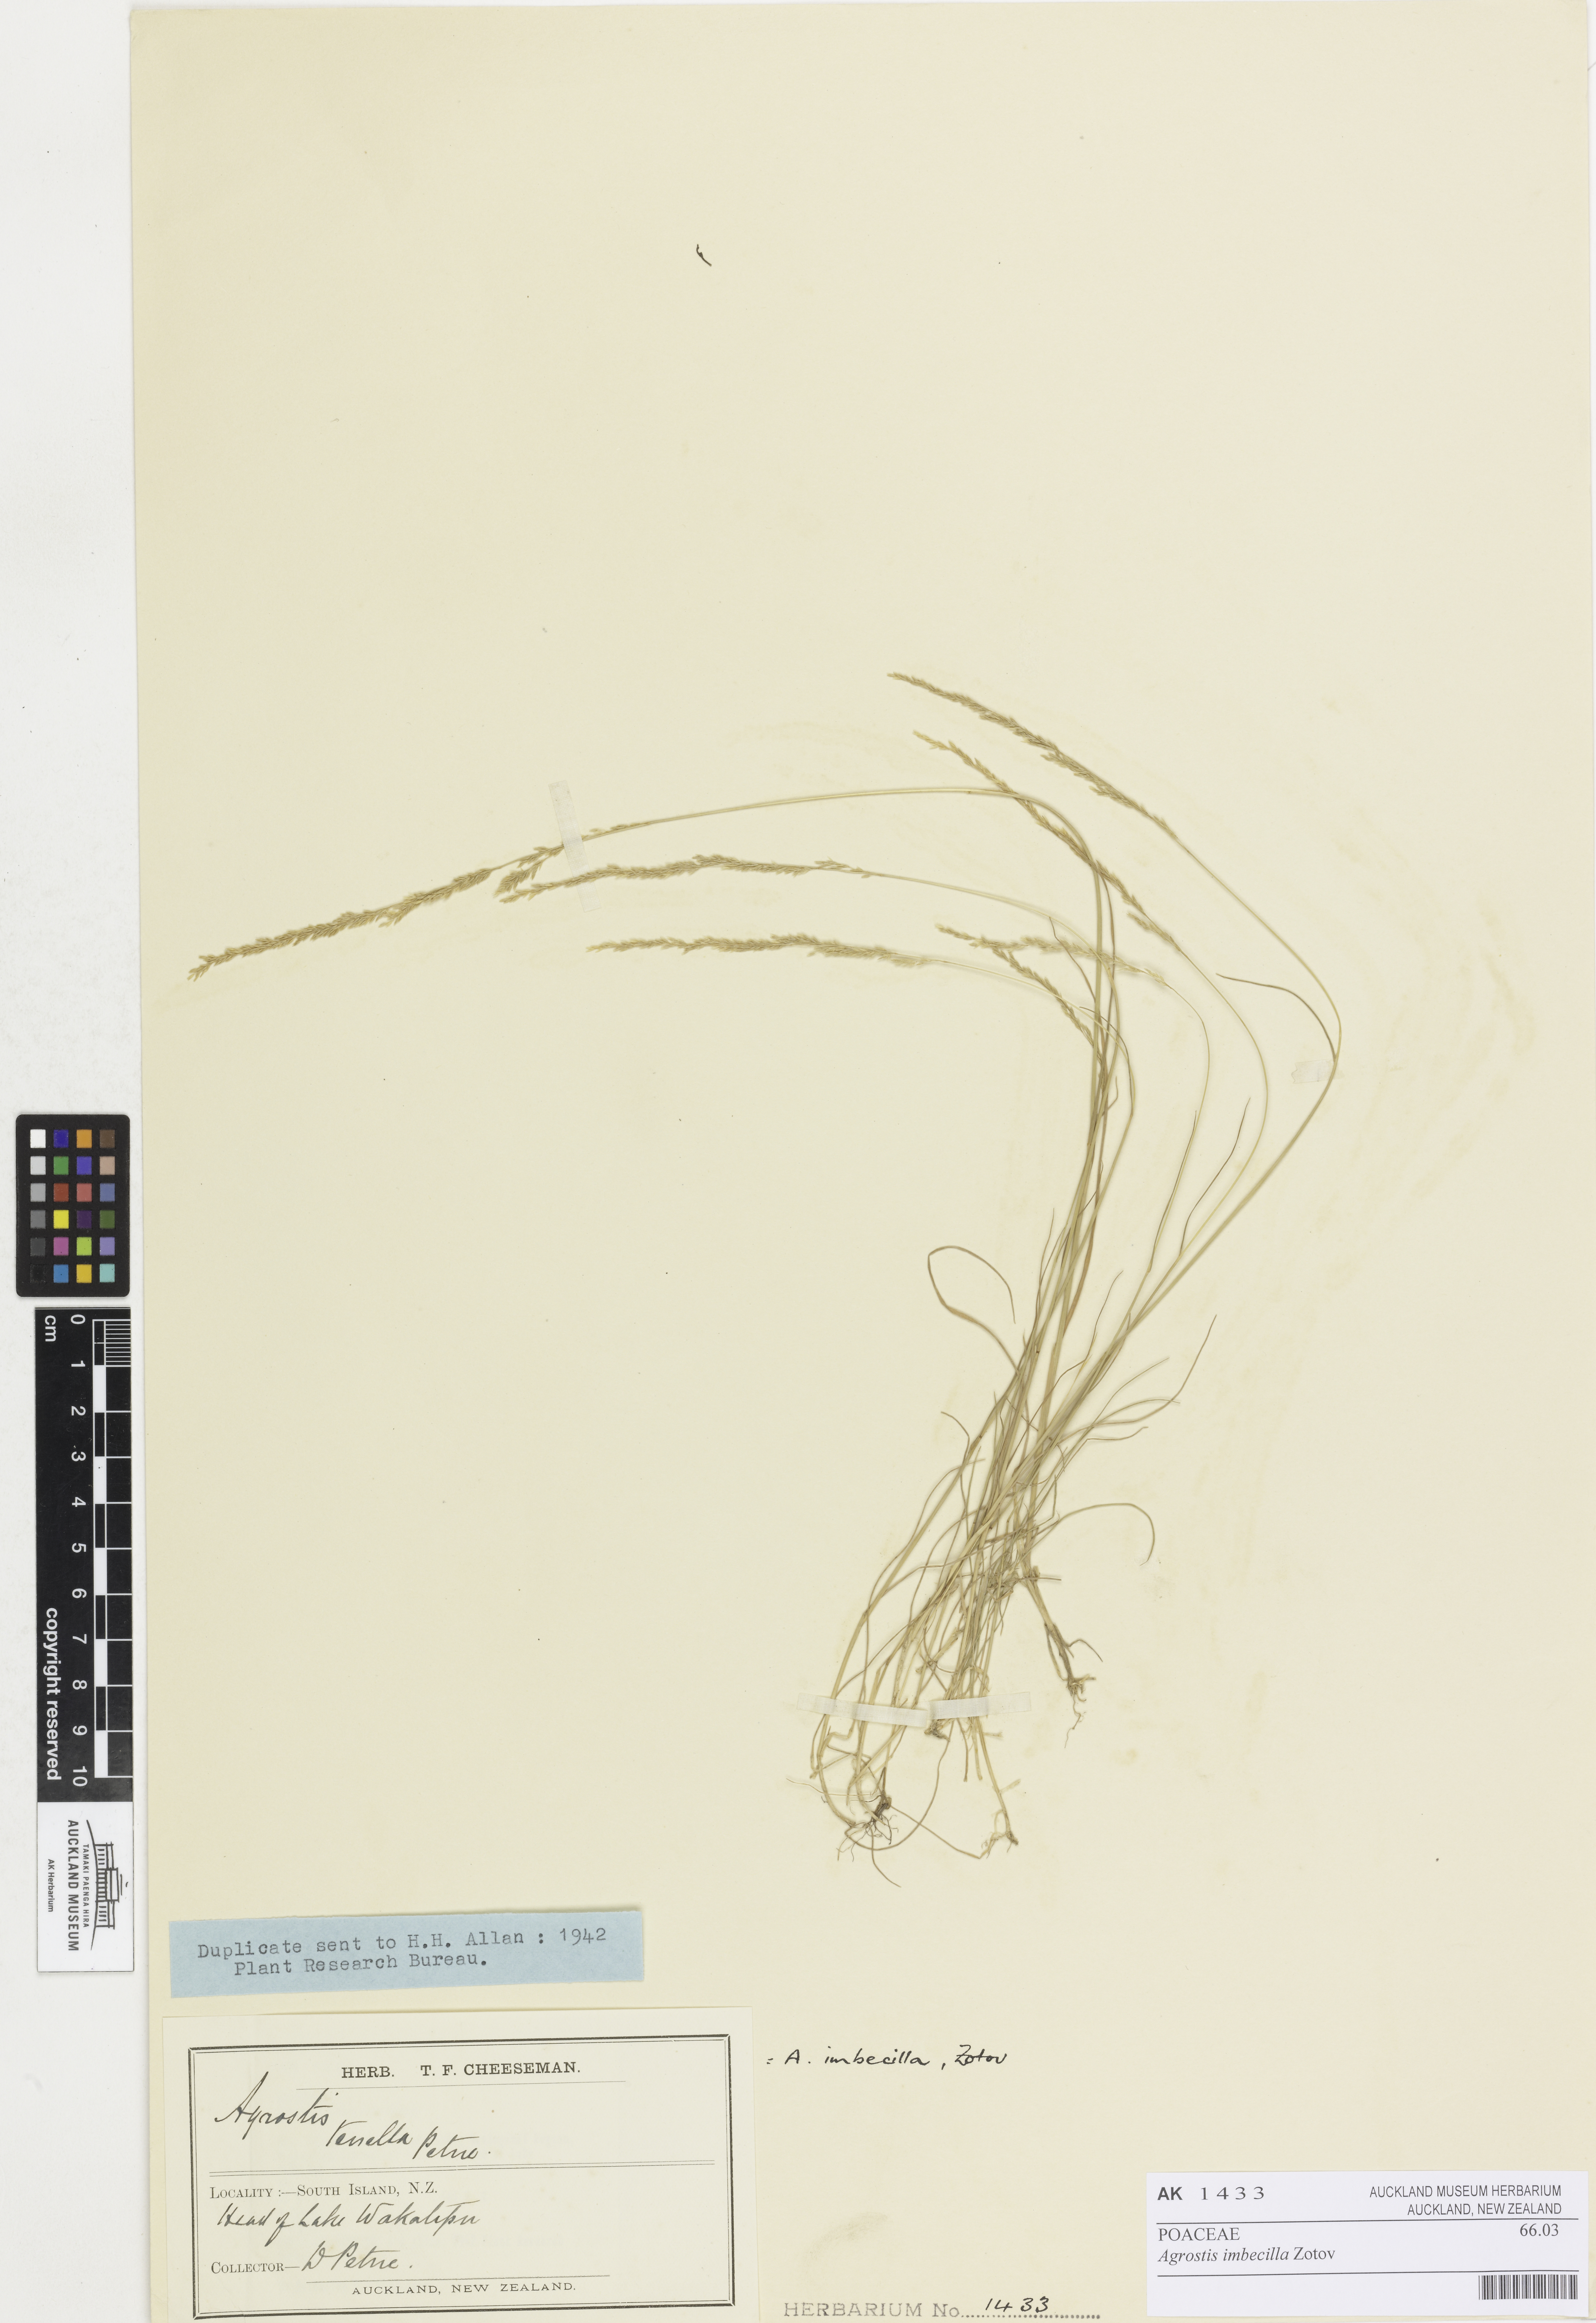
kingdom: Plantae
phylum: Tracheophyta
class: Liliopsida
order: Poales
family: Poaceae
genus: Agrostis
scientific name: Agrostis imbecilla
